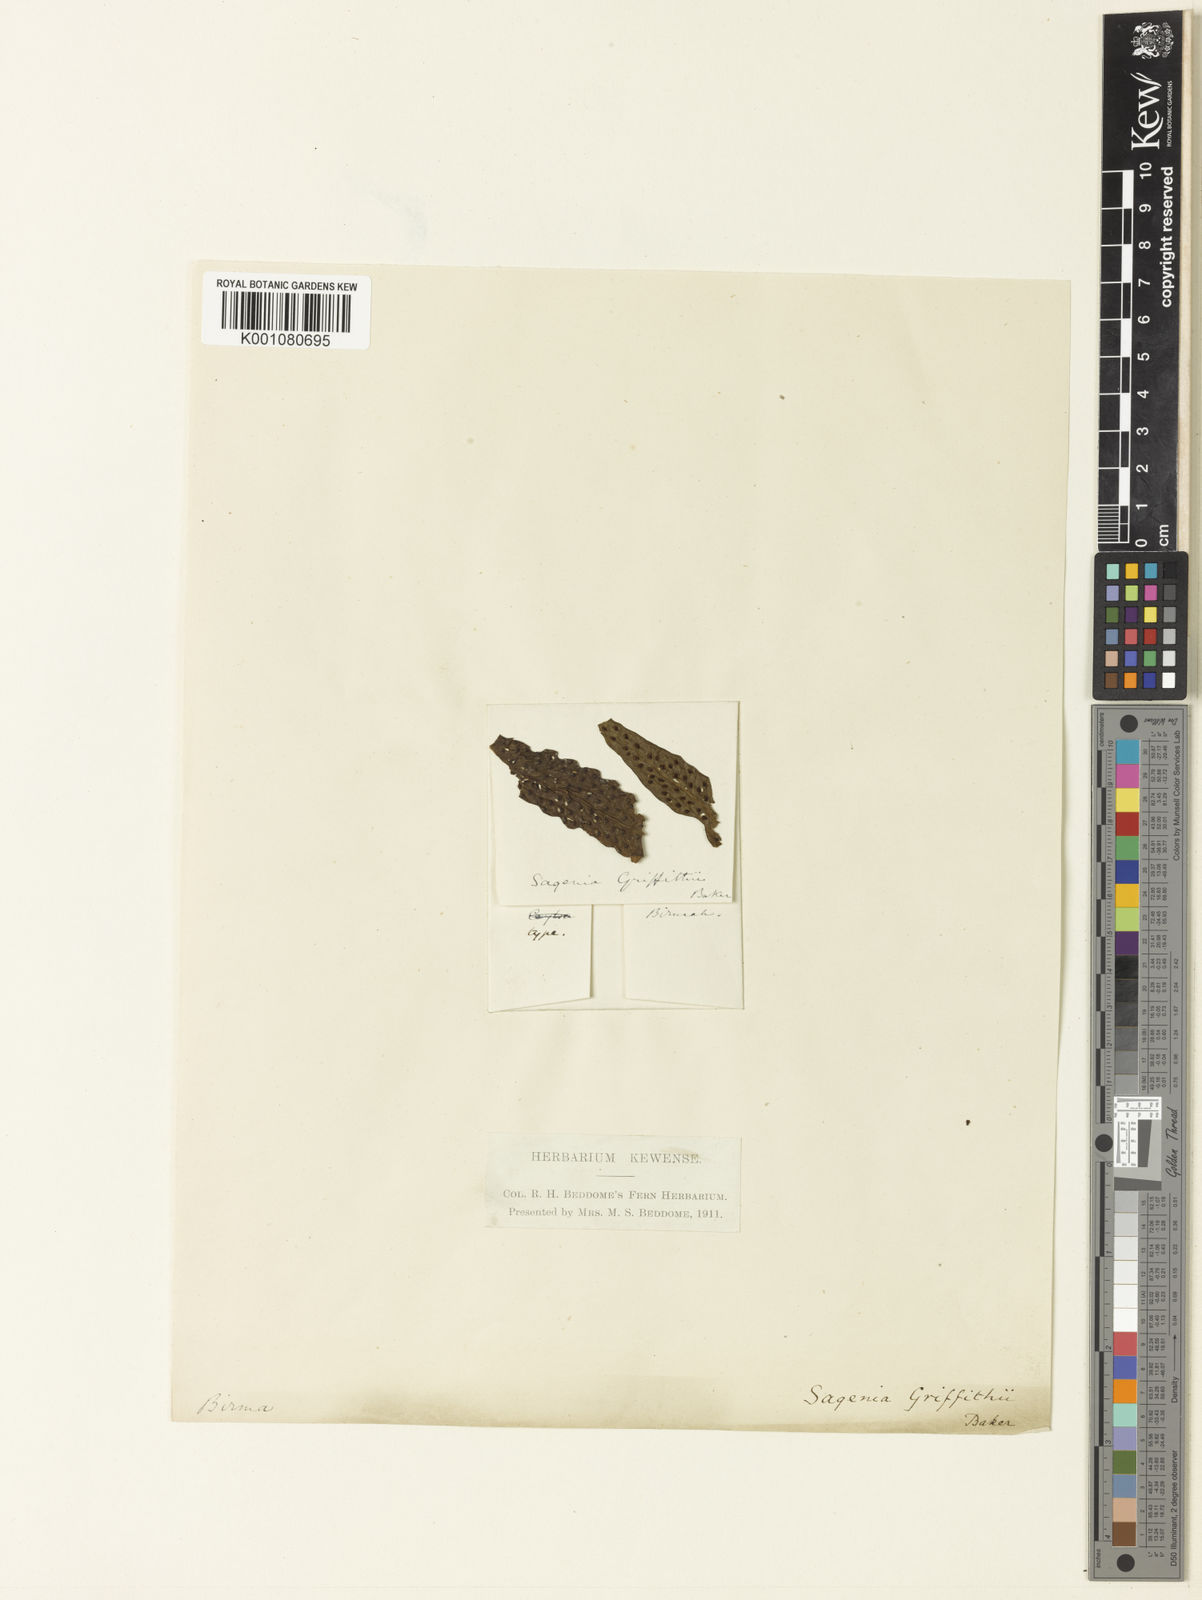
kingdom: Plantae
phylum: Tracheophyta
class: Polypodiopsida
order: Polypodiales
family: Tectariaceae
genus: Tectaria
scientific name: Tectaria griffithii
